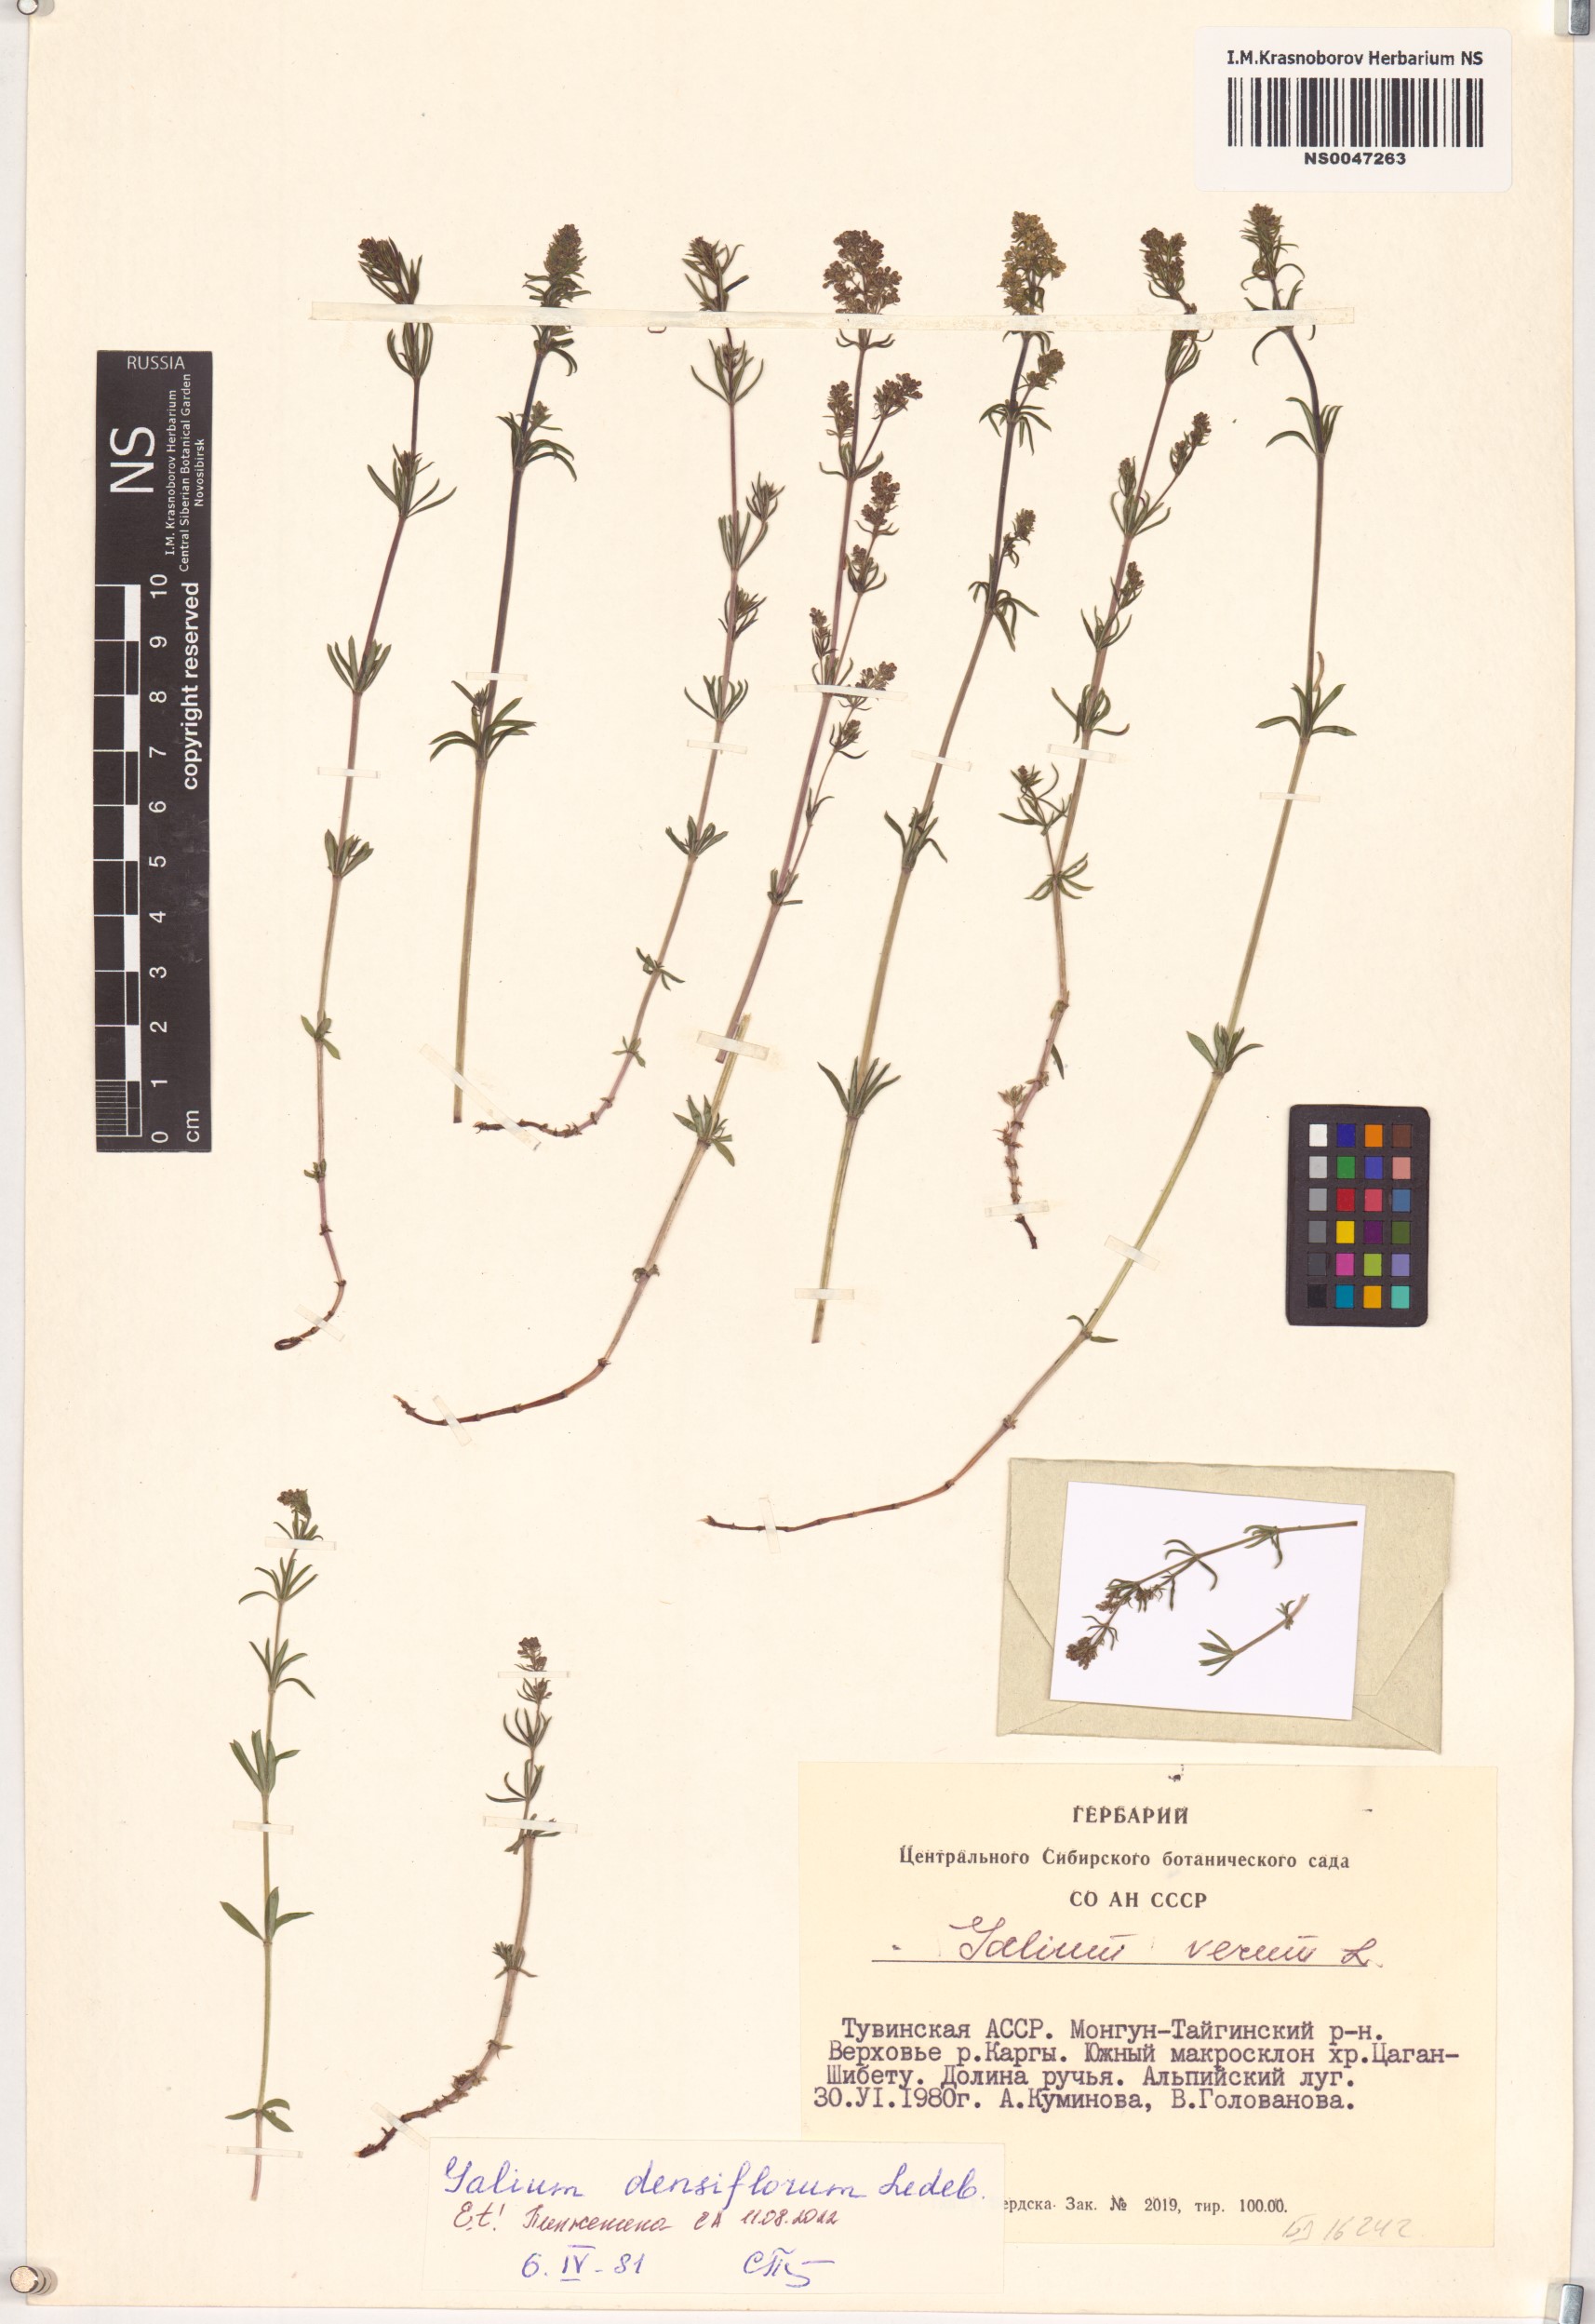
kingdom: Plantae
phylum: Tracheophyta
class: Magnoliopsida
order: Gentianales
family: Rubiaceae
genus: Galium
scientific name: Galium densiflorum
